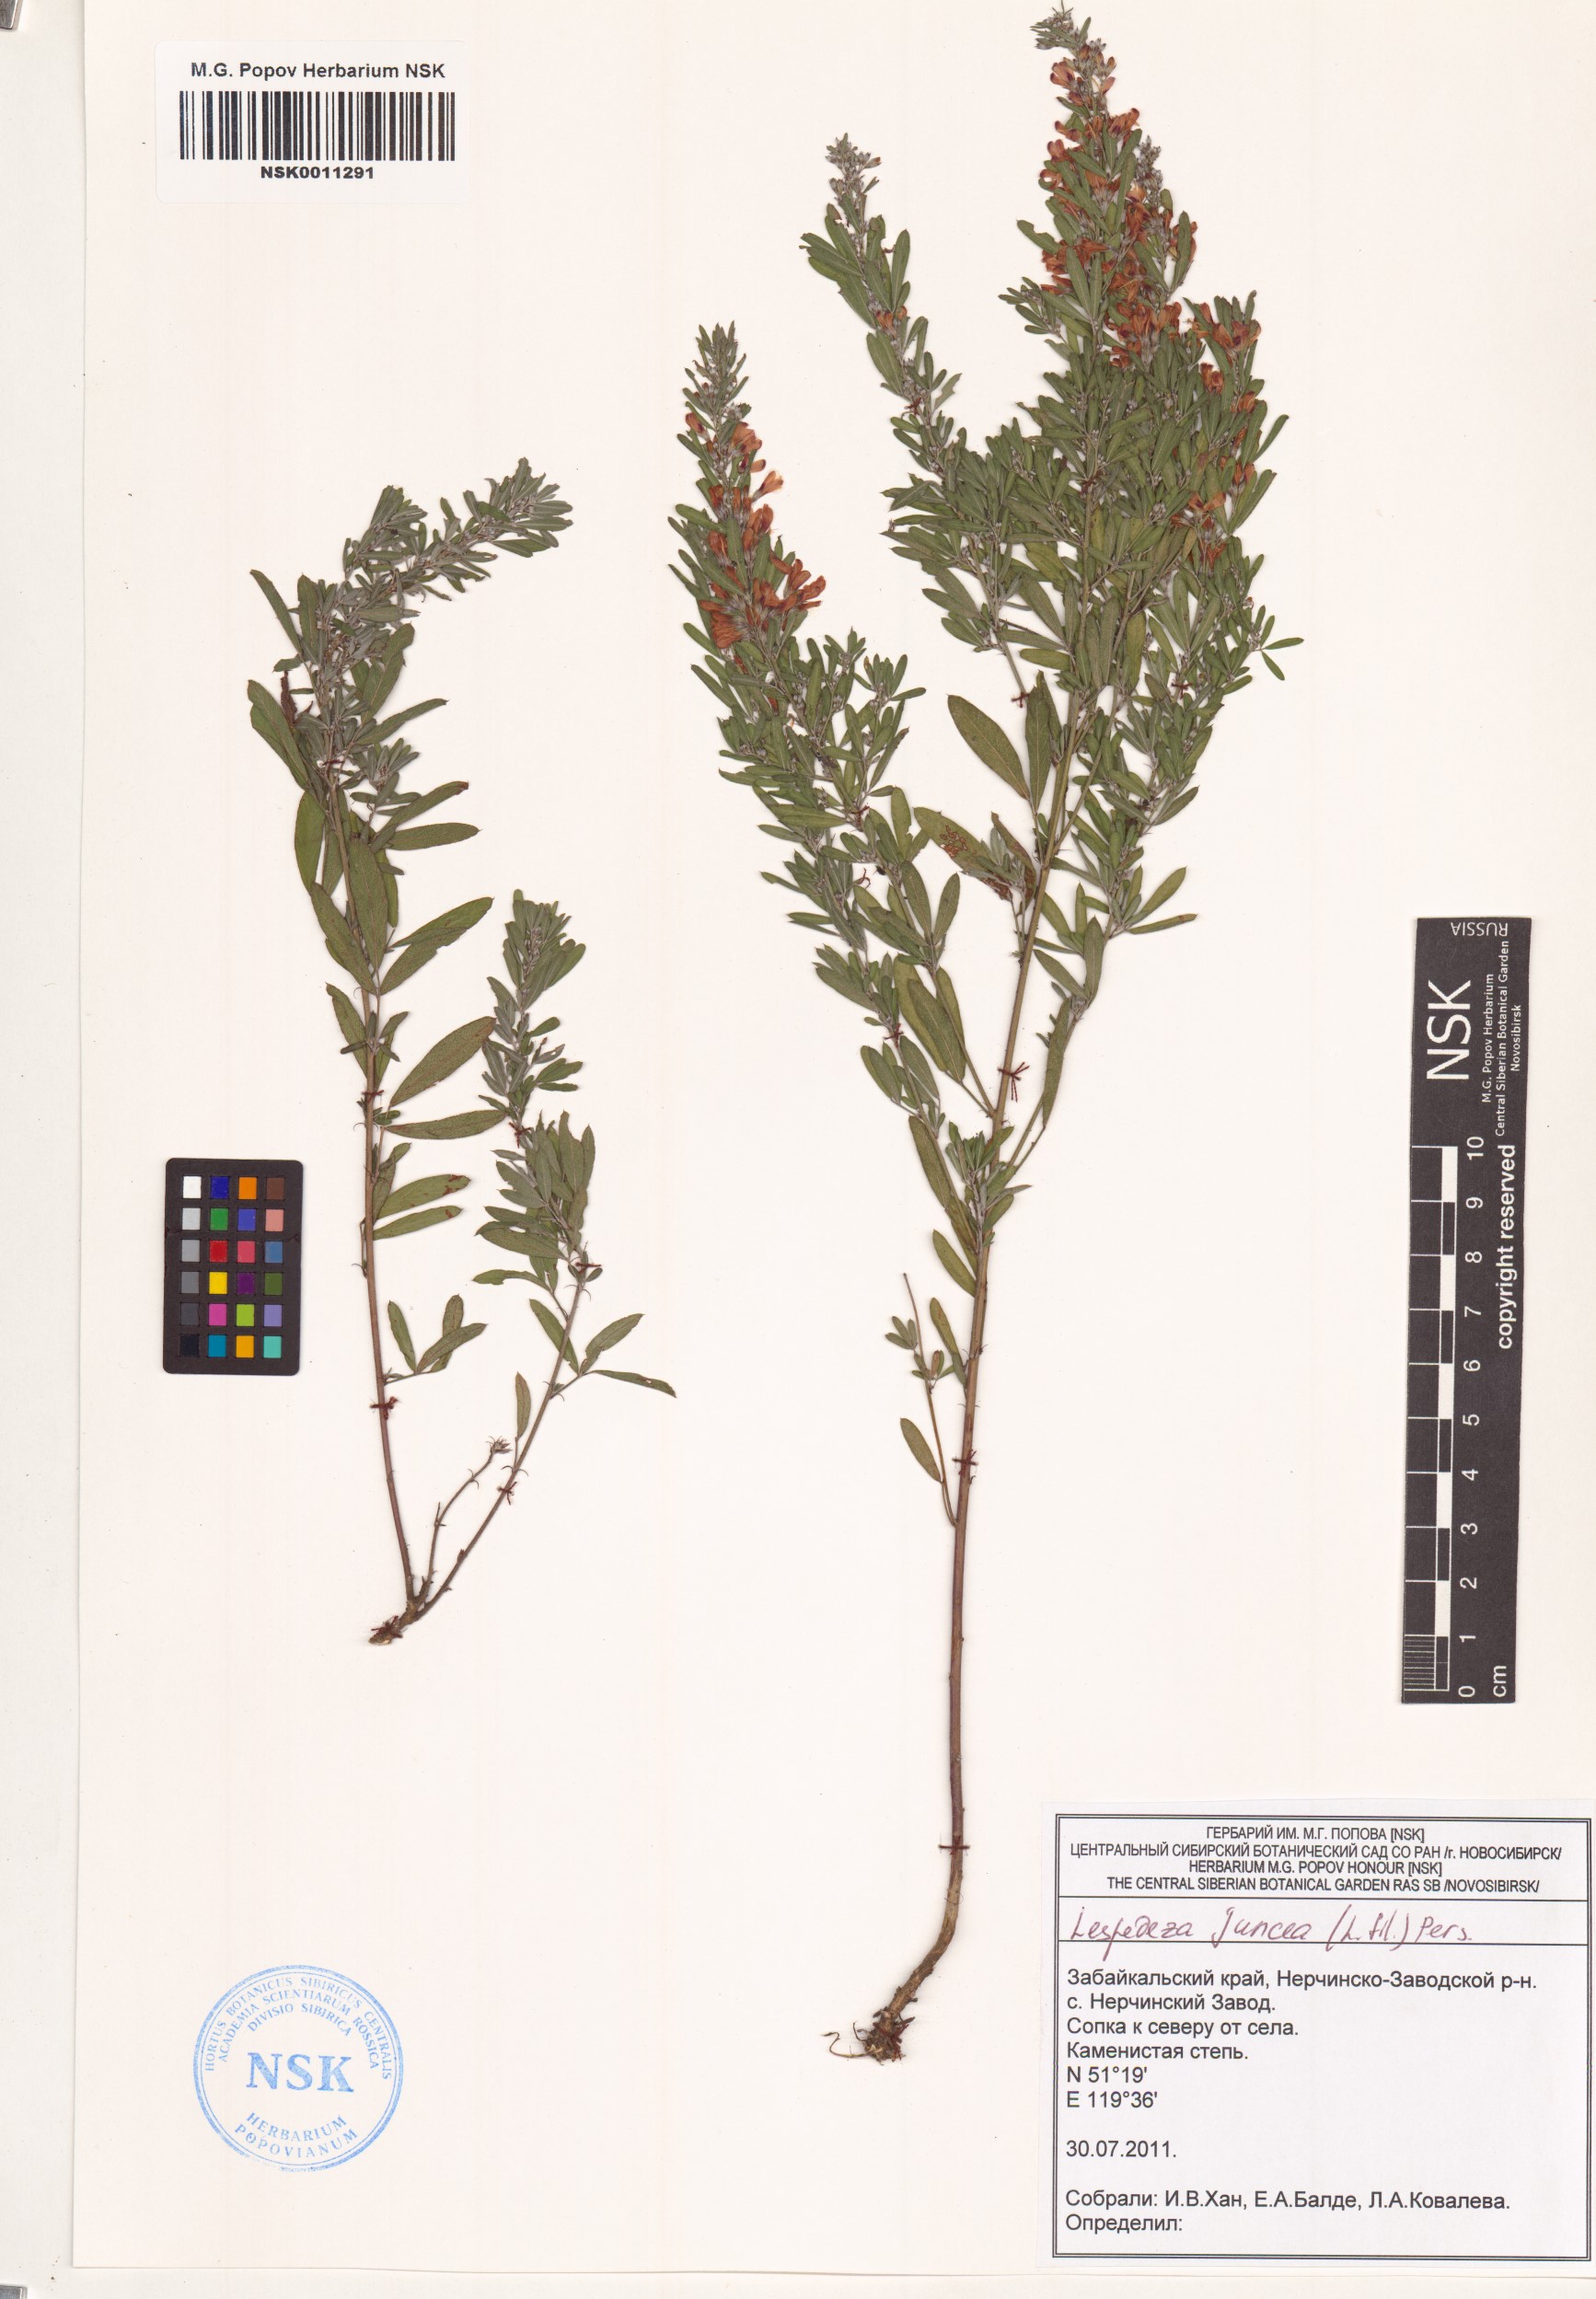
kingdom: Plantae
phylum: Tracheophyta
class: Magnoliopsida
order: Fabales
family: Fabaceae
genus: Lespedeza
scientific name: Lespedeza juncea
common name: Siberian lespedeza
